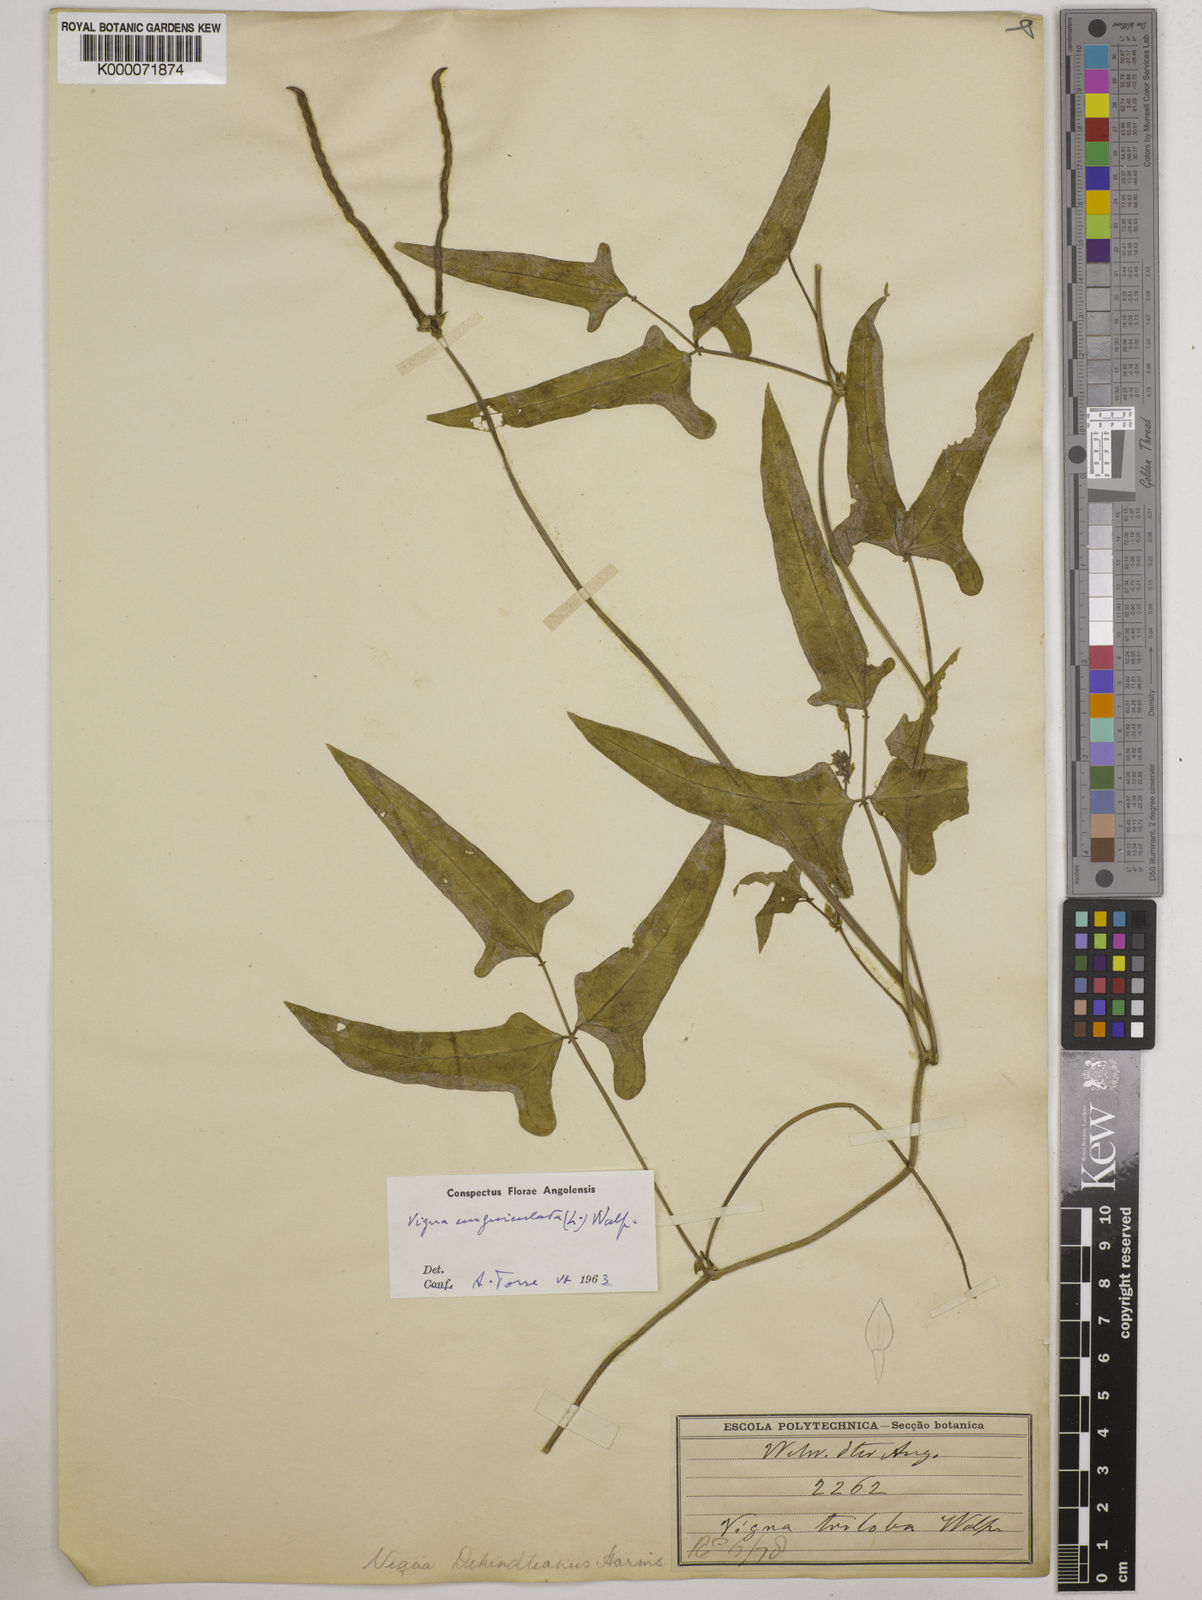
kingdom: Plantae
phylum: Tracheophyta
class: Magnoliopsida
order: Fabales
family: Fabaceae
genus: Vigna
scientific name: Vigna unguiculata
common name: Cowpea
